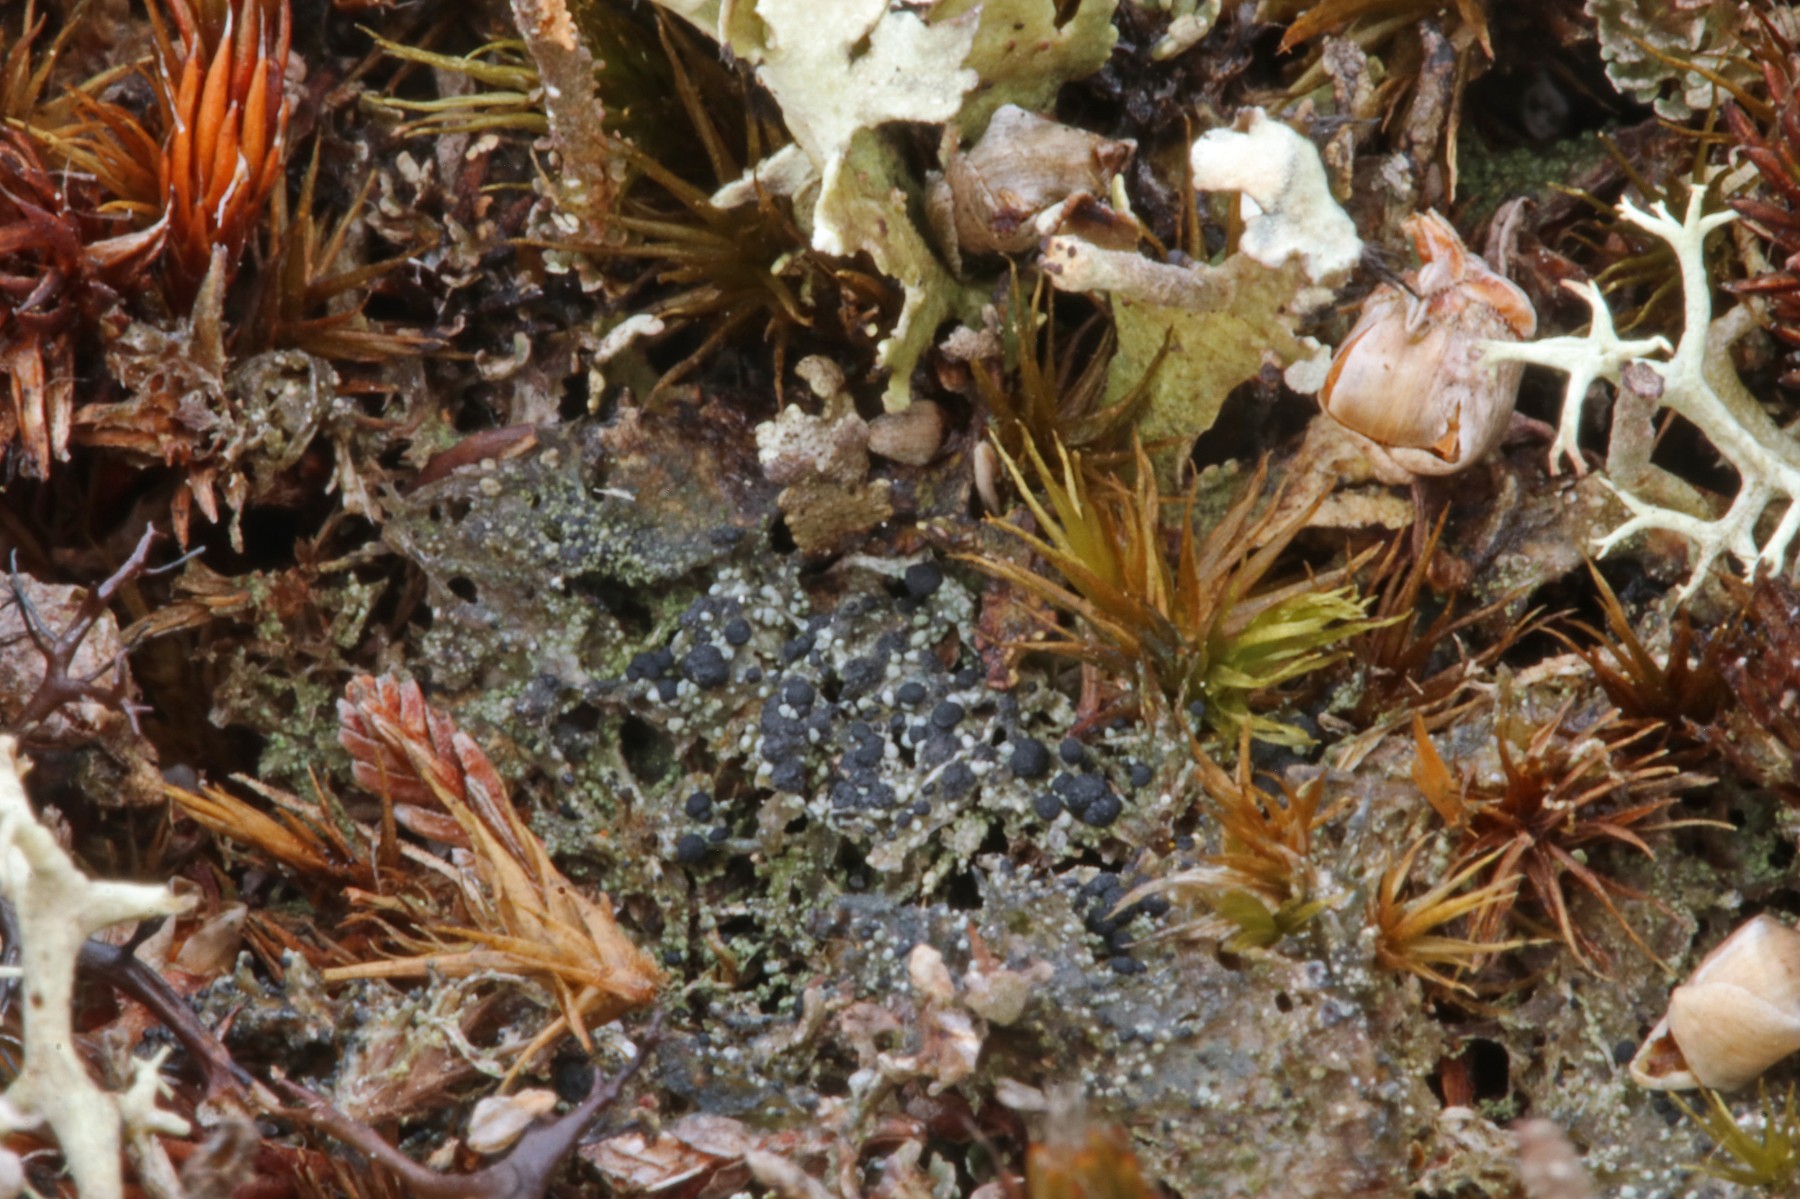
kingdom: Fungi
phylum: Ascomycota
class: Lecanoromycetes
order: Lecanorales
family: Byssolomataceae
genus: Micarea
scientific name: Micarea lignaria
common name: tørve-knaplav
